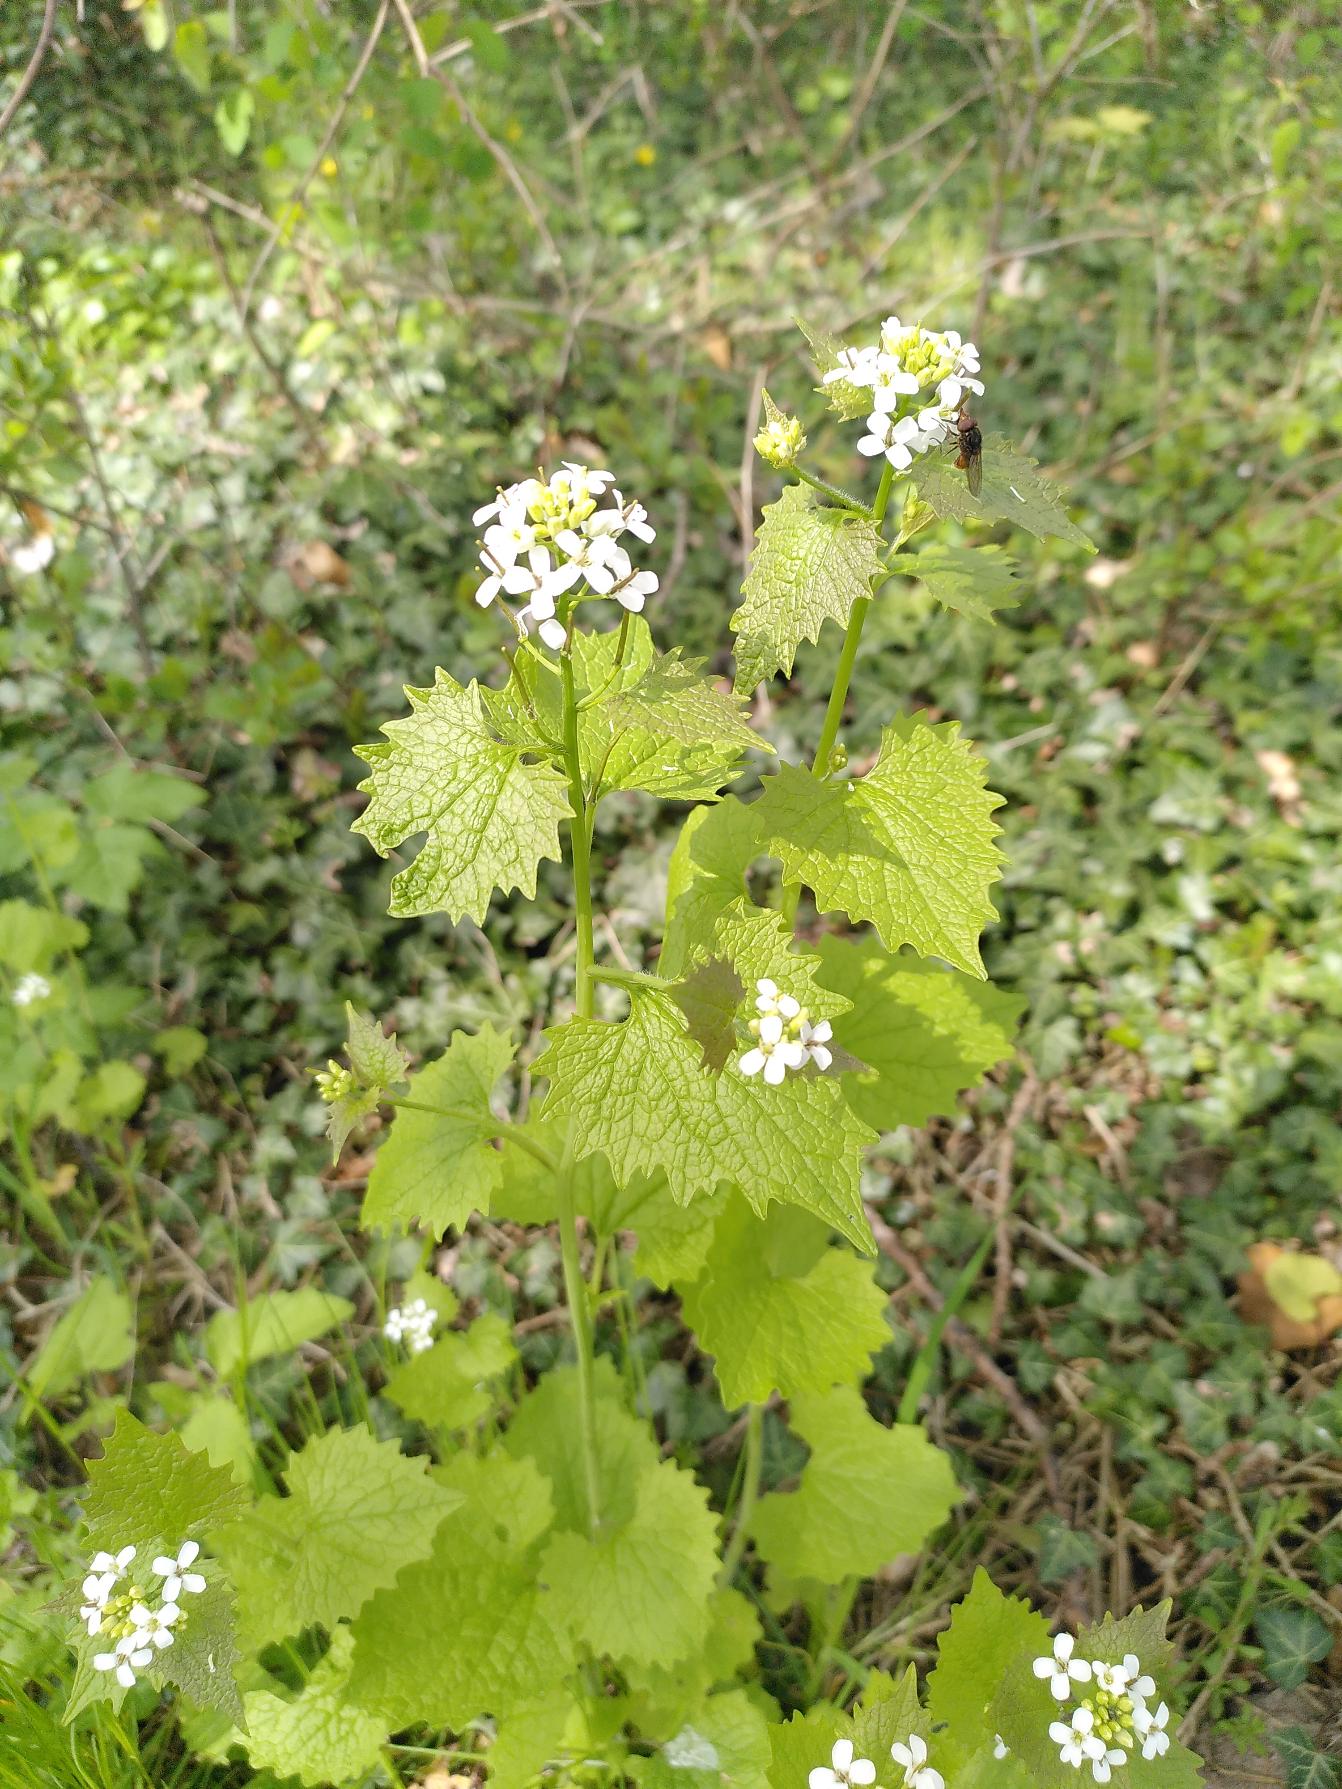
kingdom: Plantae
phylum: Tracheophyta
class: Magnoliopsida
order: Brassicales
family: Brassicaceae
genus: Alliaria
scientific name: Alliaria petiolata
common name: Løgkarse
